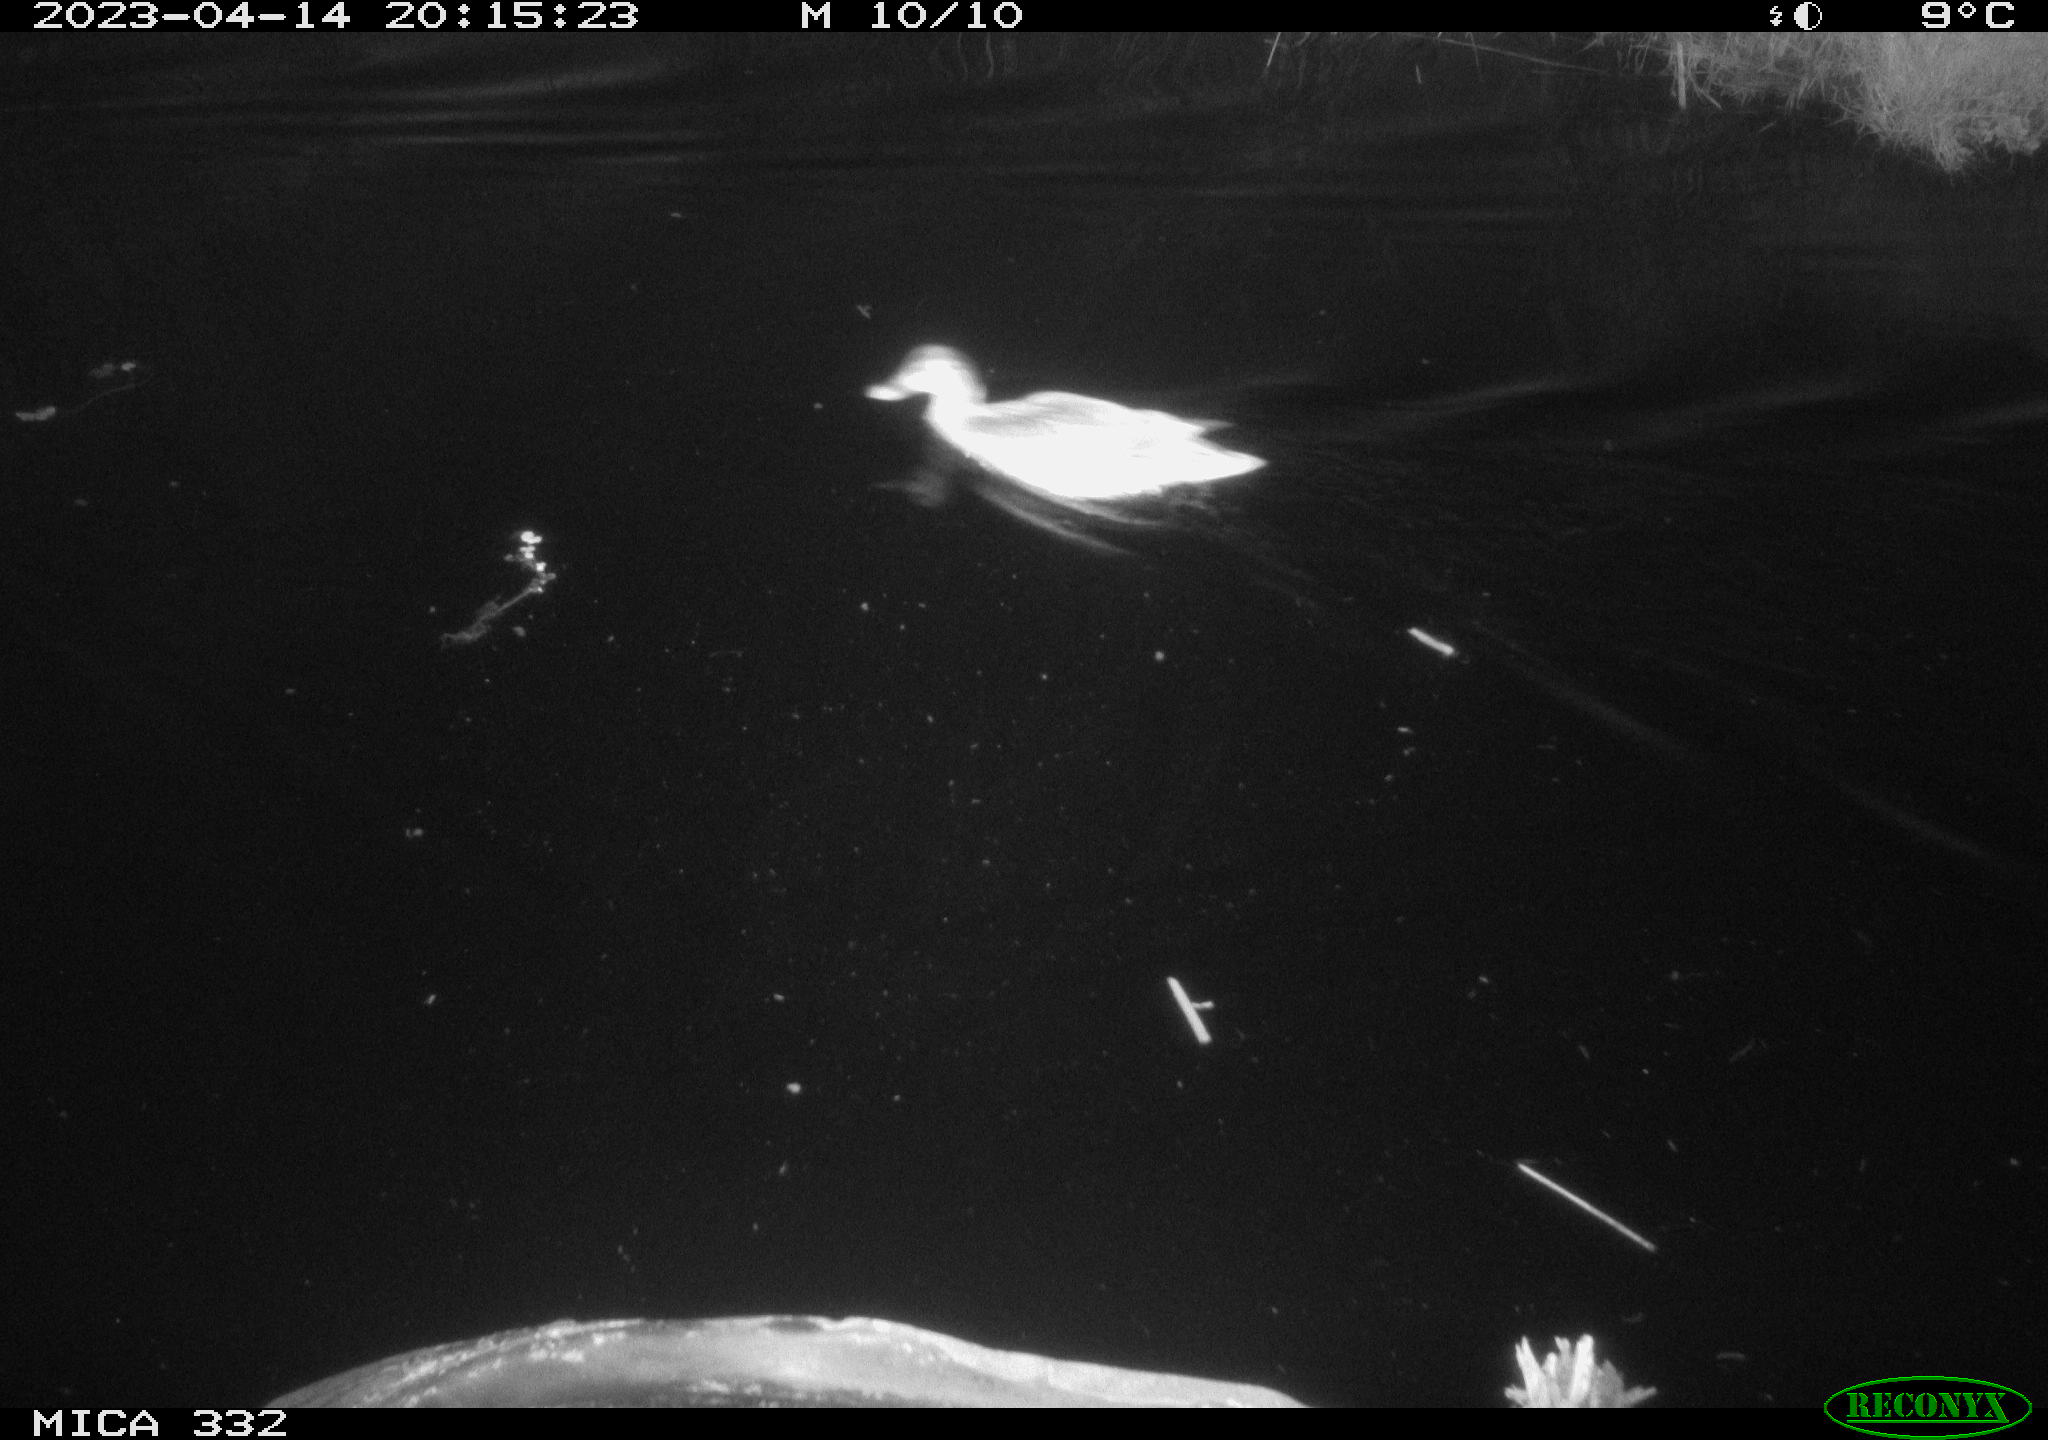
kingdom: Animalia
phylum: Chordata
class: Aves
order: Anseriformes
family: Anatidae
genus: Anas
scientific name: Anas platyrhynchos
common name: Mallard
